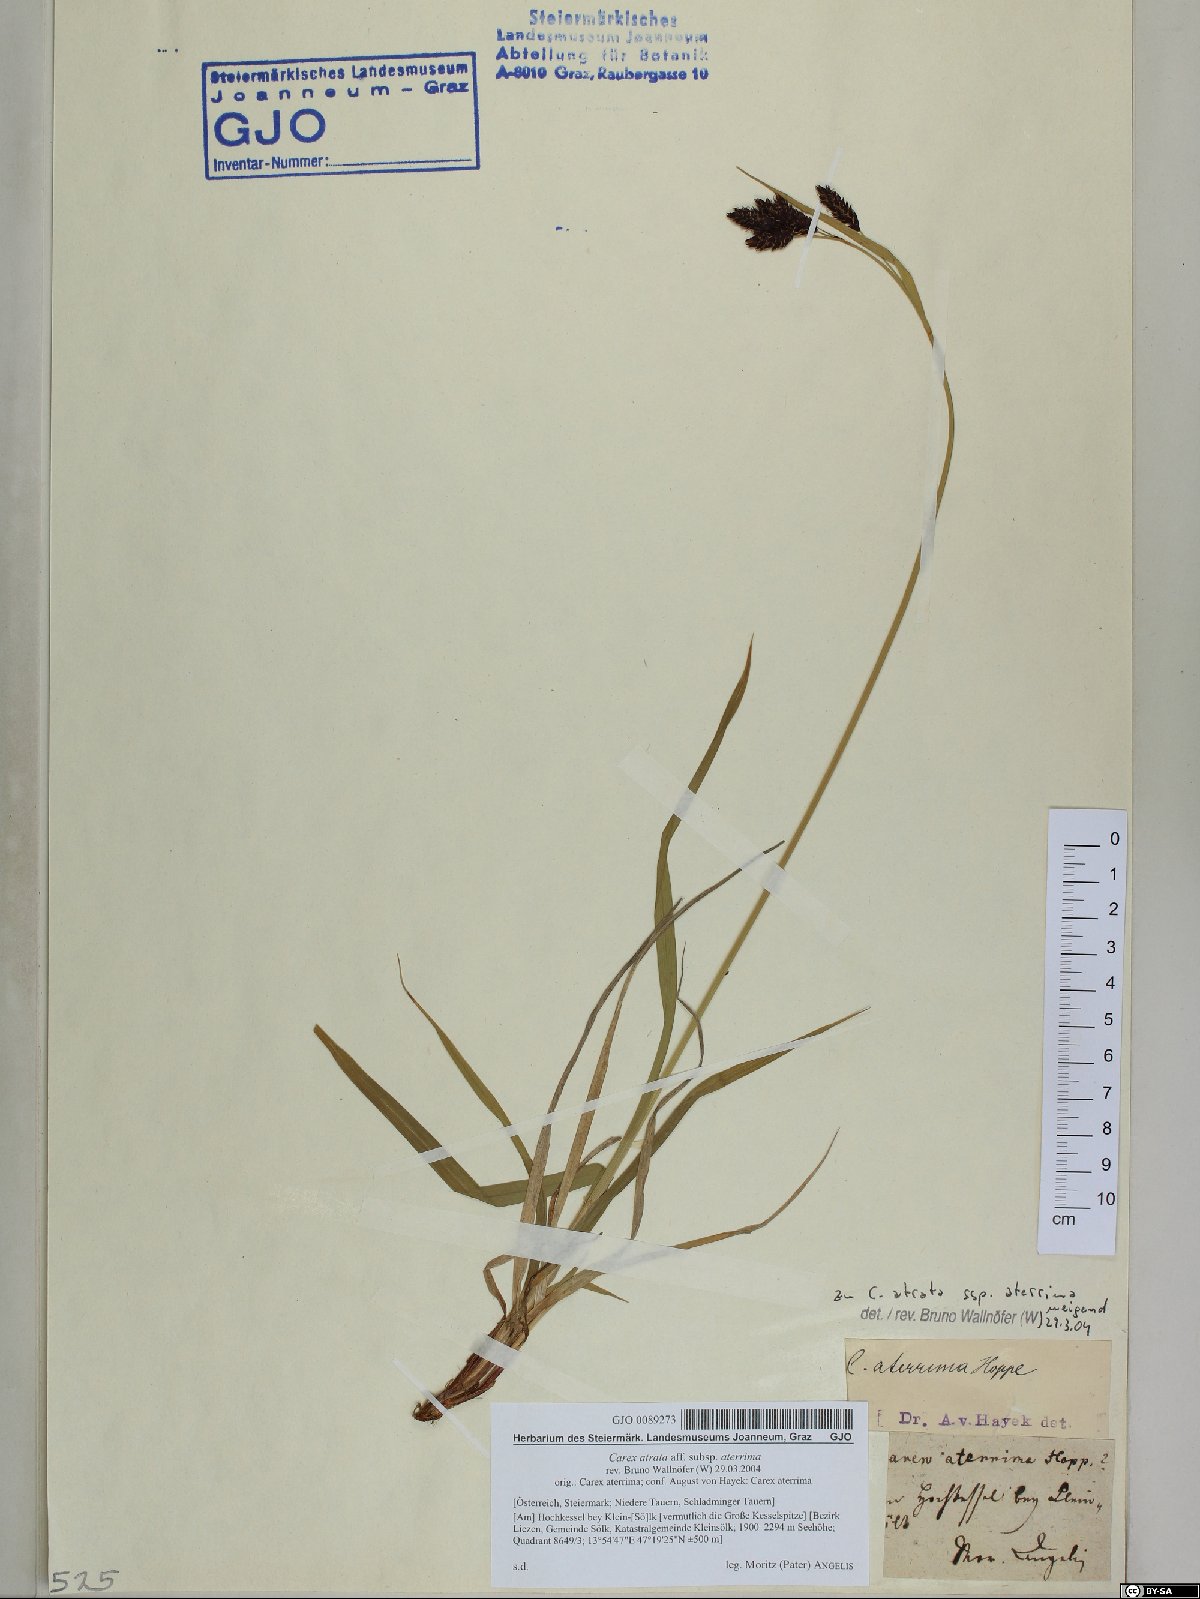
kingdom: Plantae
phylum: Tracheophyta
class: Liliopsida
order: Poales
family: Cyperaceae
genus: Carex
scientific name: Carex aterrima
